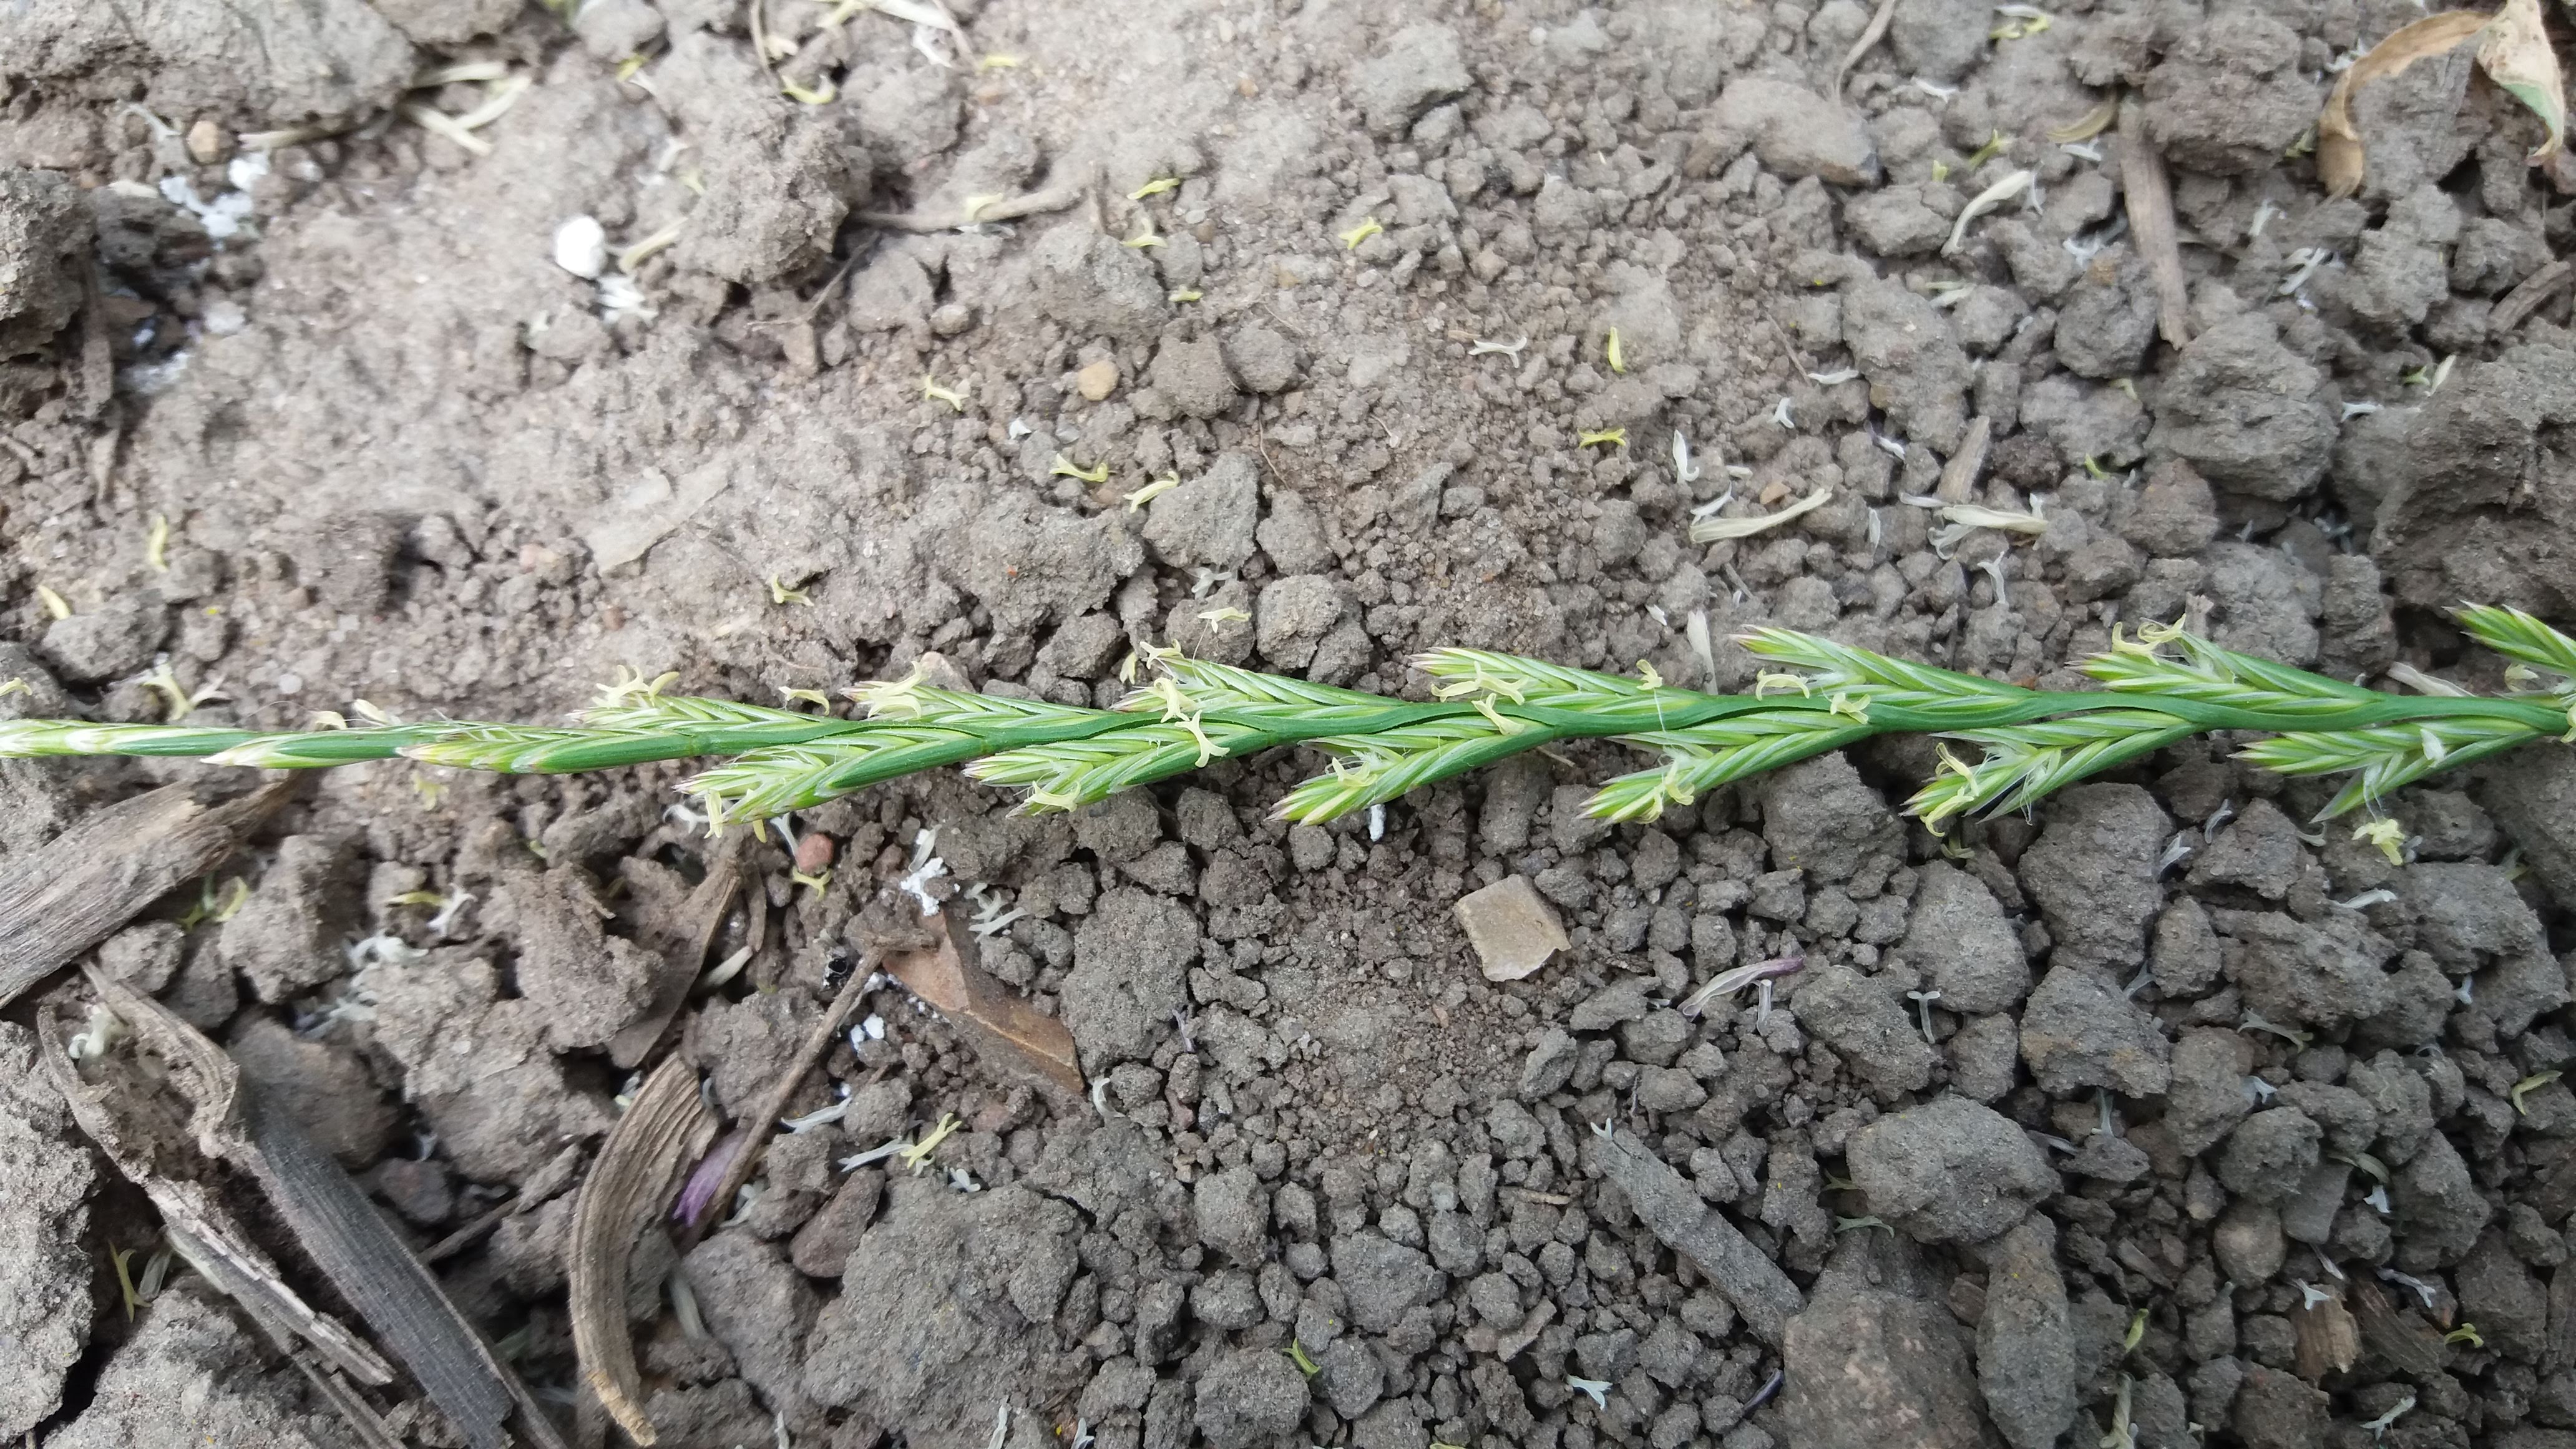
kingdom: Plantae
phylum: Tracheophyta
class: Liliopsida
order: Poales
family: Poaceae
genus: Lolium
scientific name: Lolium perenne
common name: Perennial ryegrass
